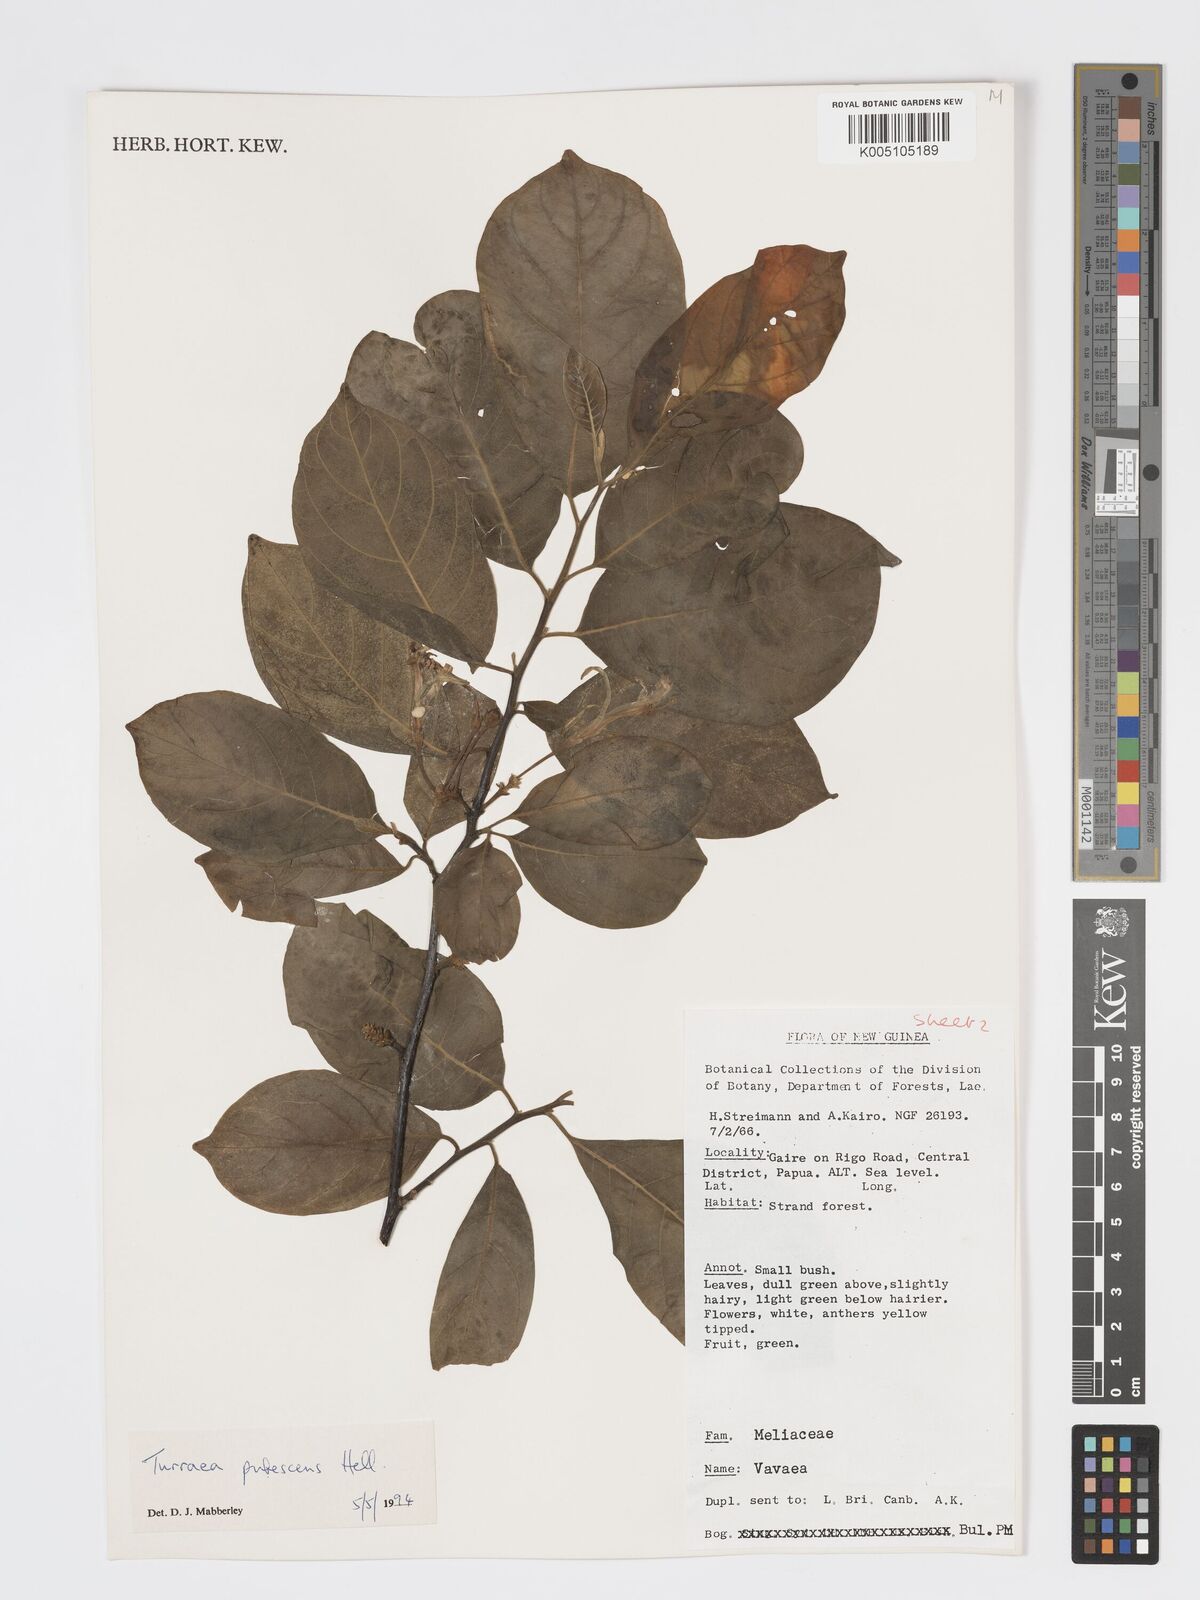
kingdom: Plantae
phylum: Tracheophyta
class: Magnoliopsida
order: Sapindales
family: Meliaceae
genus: Turraea
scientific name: Turraea
